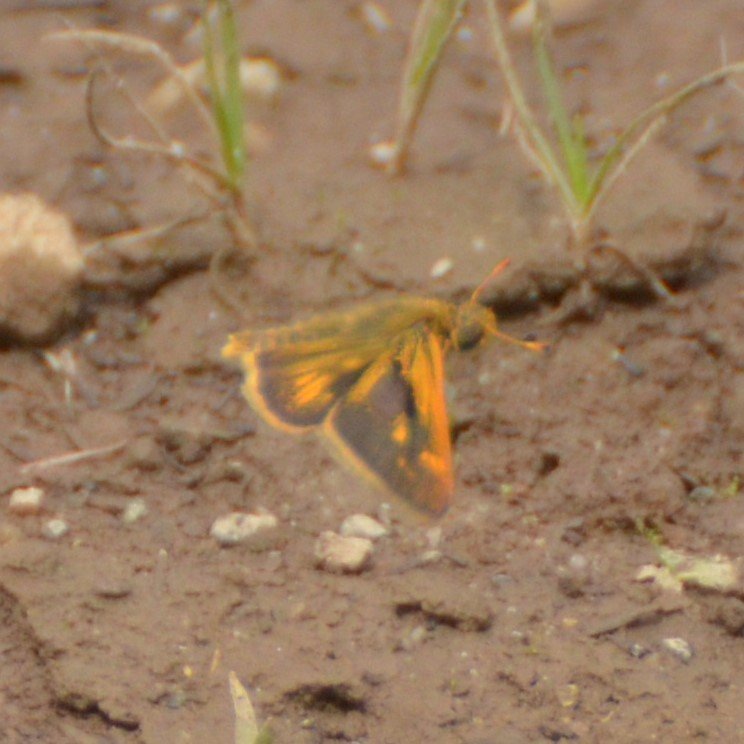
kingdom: Animalia
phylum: Arthropoda
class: Insecta
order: Lepidoptera
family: Hesperiidae
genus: Polites
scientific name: Polites coras
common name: Peck's Skipper
